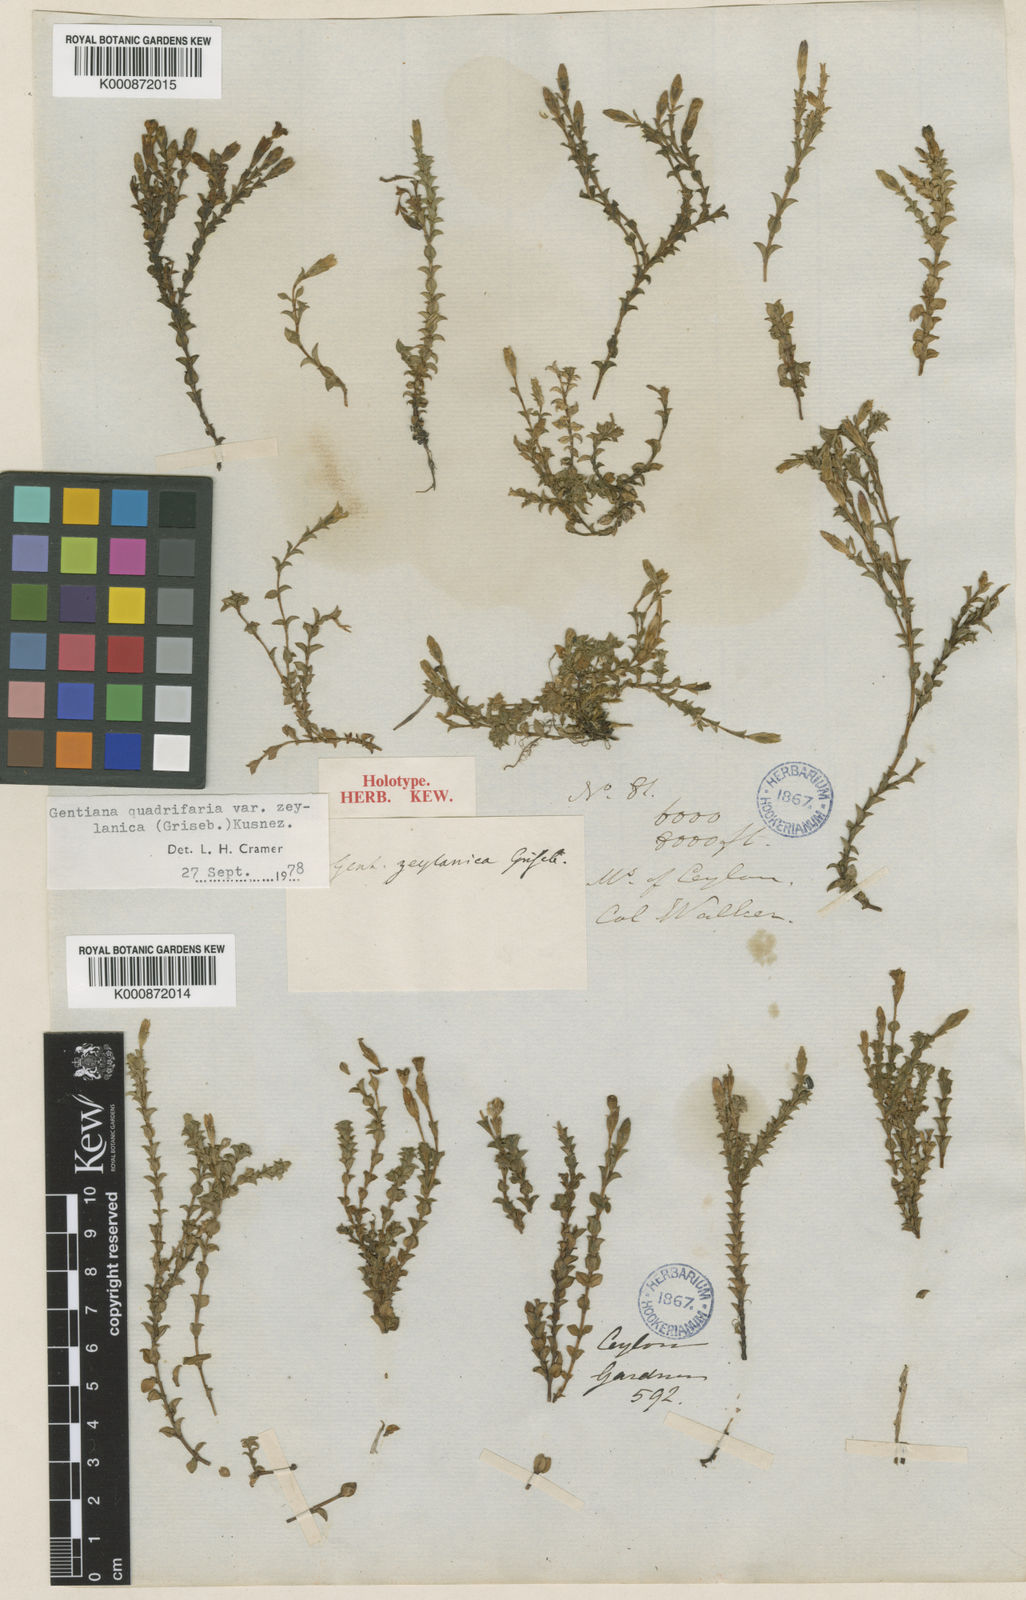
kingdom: Plantae
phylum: Tracheophyta
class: Magnoliopsida
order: Gentianales
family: Gentianaceae
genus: Gentiana
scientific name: Gentiana quadrifaria
